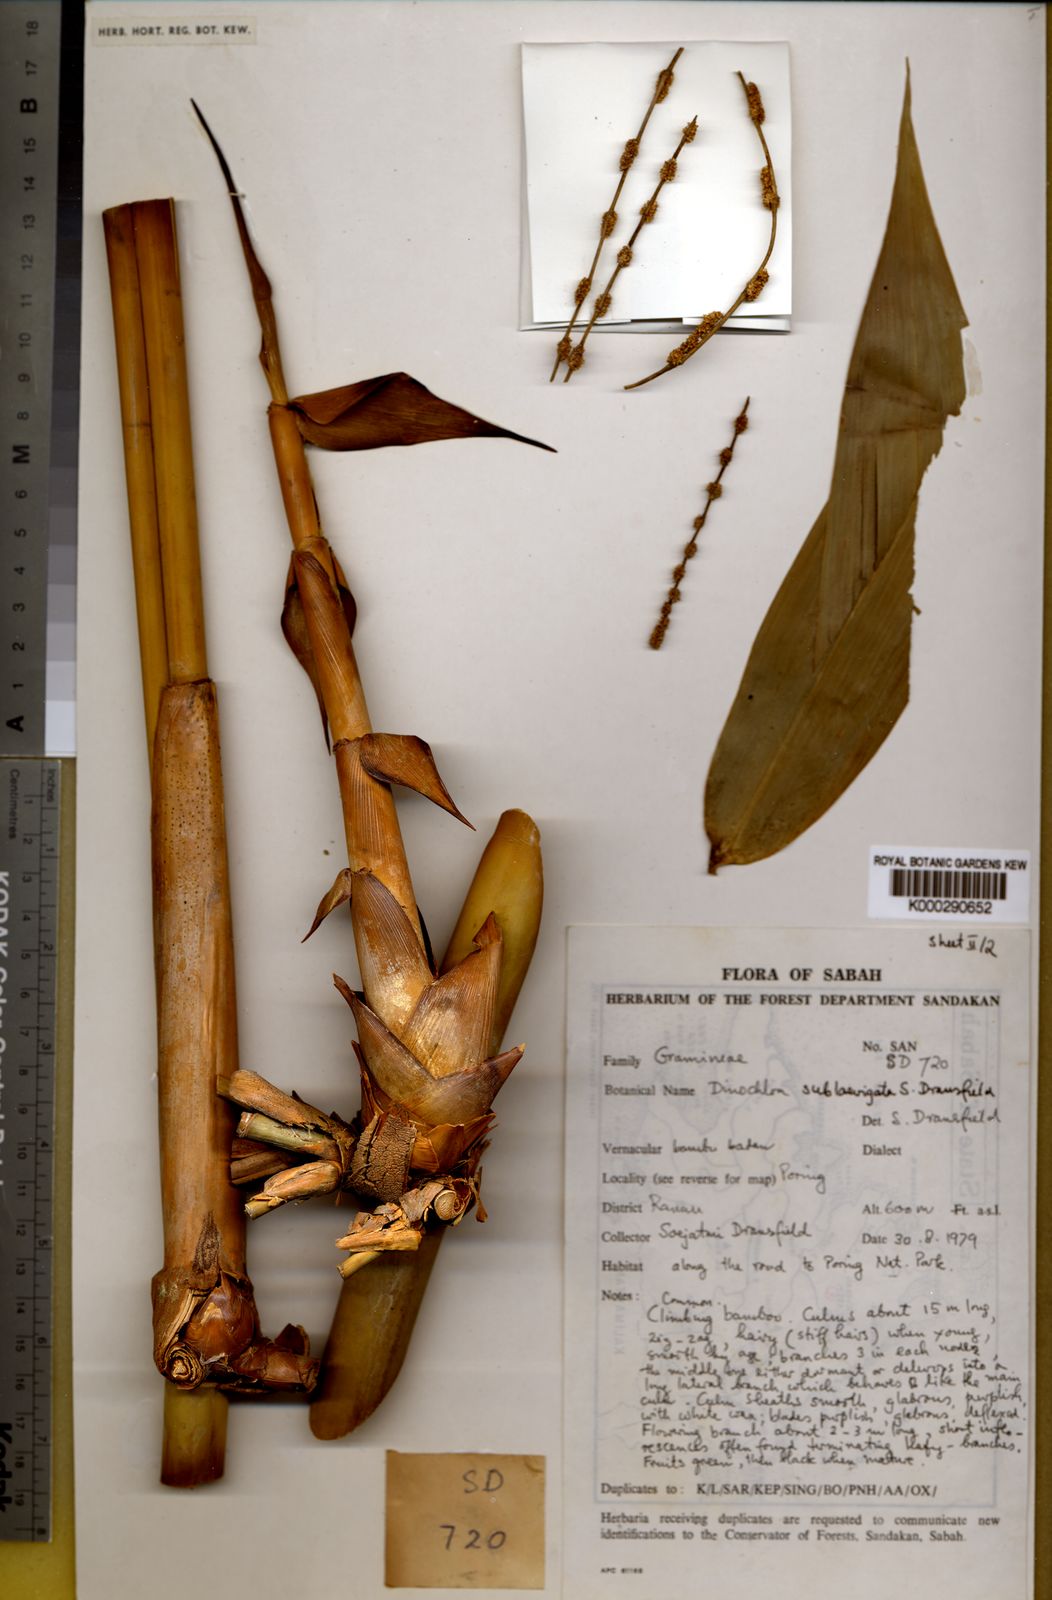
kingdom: Plantae
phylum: Tracheophyta
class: Liliopsida
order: Poales
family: Poaceae
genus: Dinochloa
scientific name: Dinochloa sublaevigata
